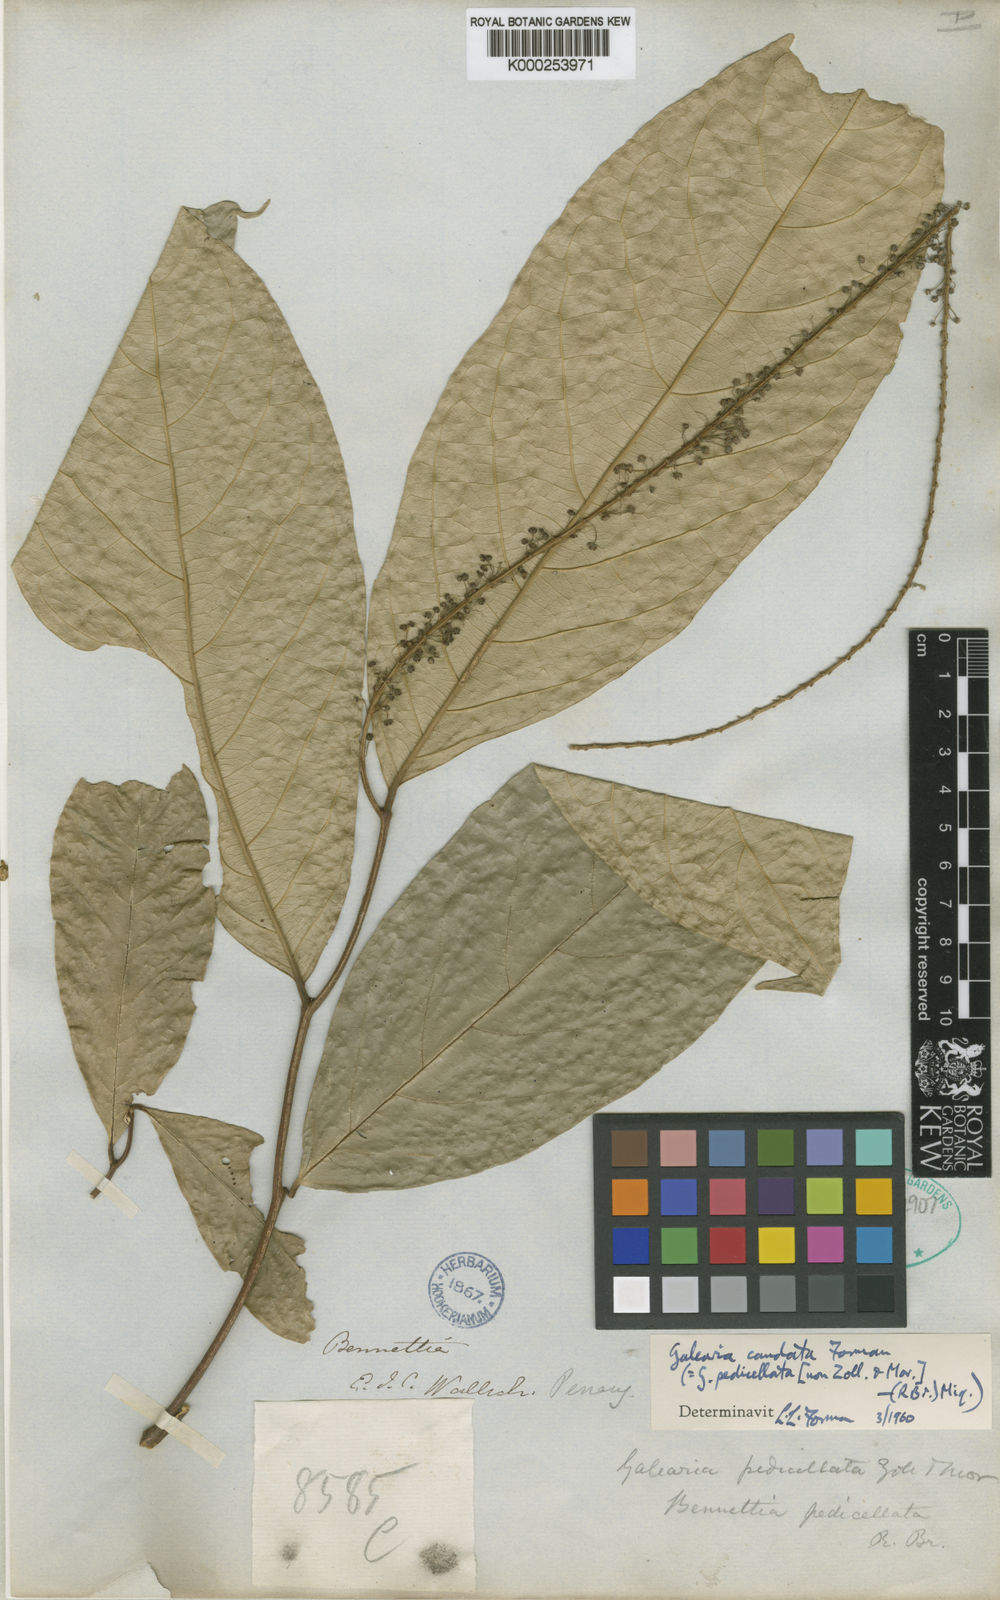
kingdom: Plantae
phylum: Tracheophyta
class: Magnoliopsida
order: Malpighiales
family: Pandaceae
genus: Galearia
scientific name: Galearia fulva
